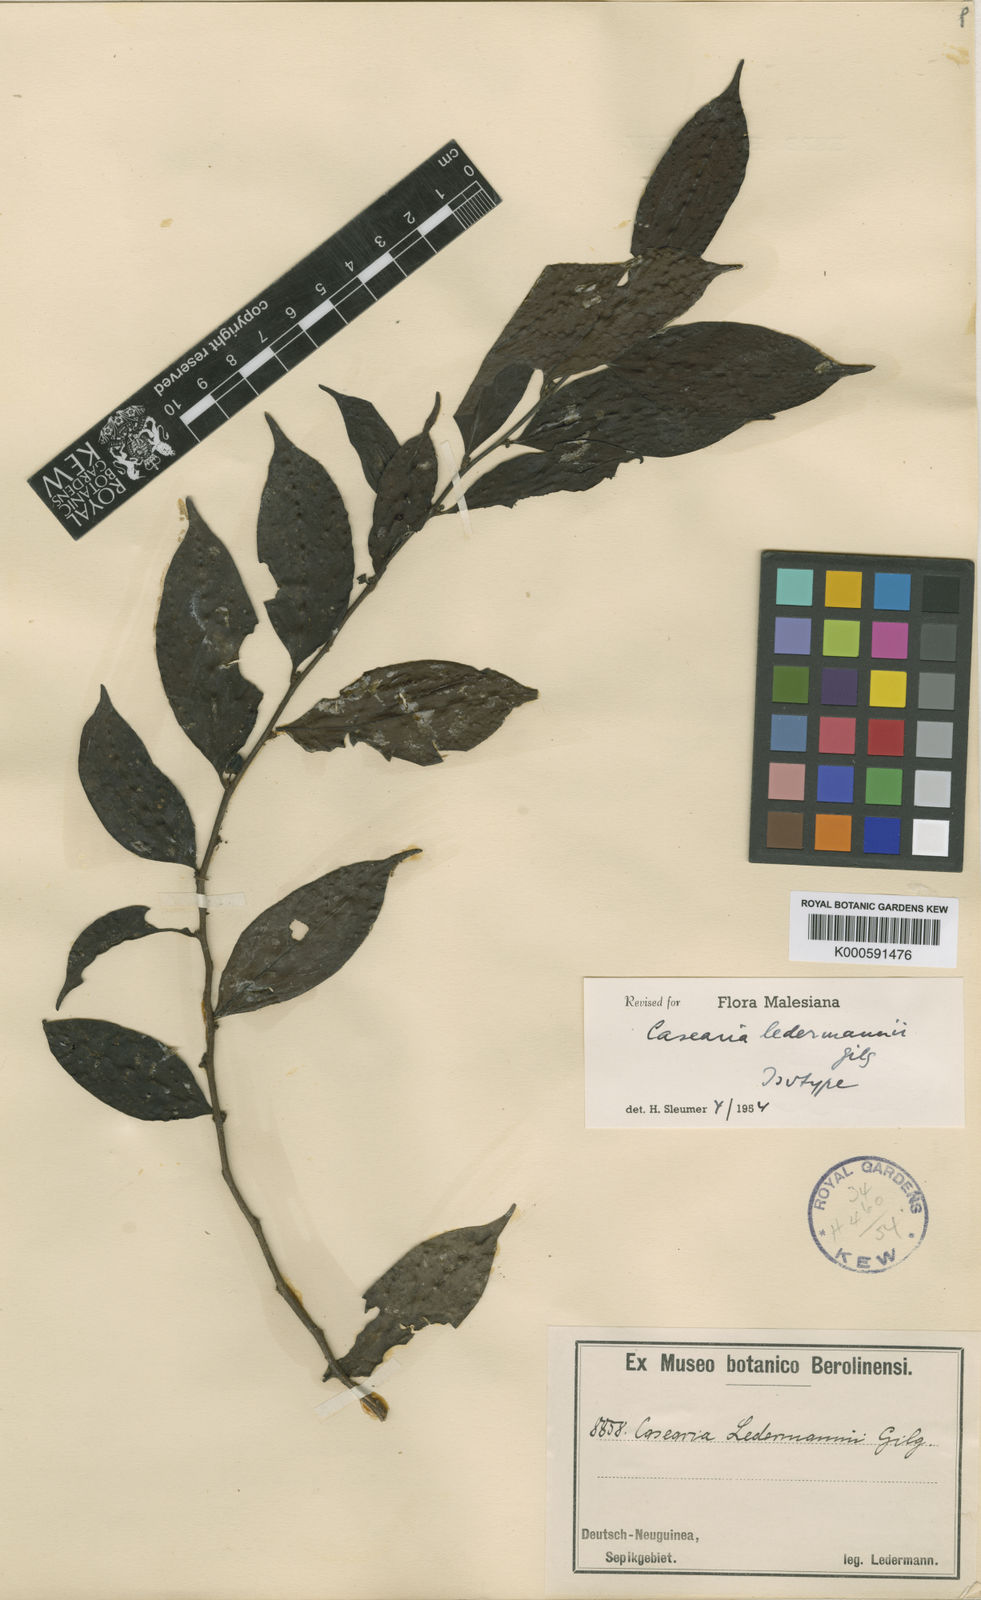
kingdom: Plantae
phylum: Tracheophyta
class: Magnoliopsida
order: Malpighiales
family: Salicaceae
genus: Casearia
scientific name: Casearia ledermannii
